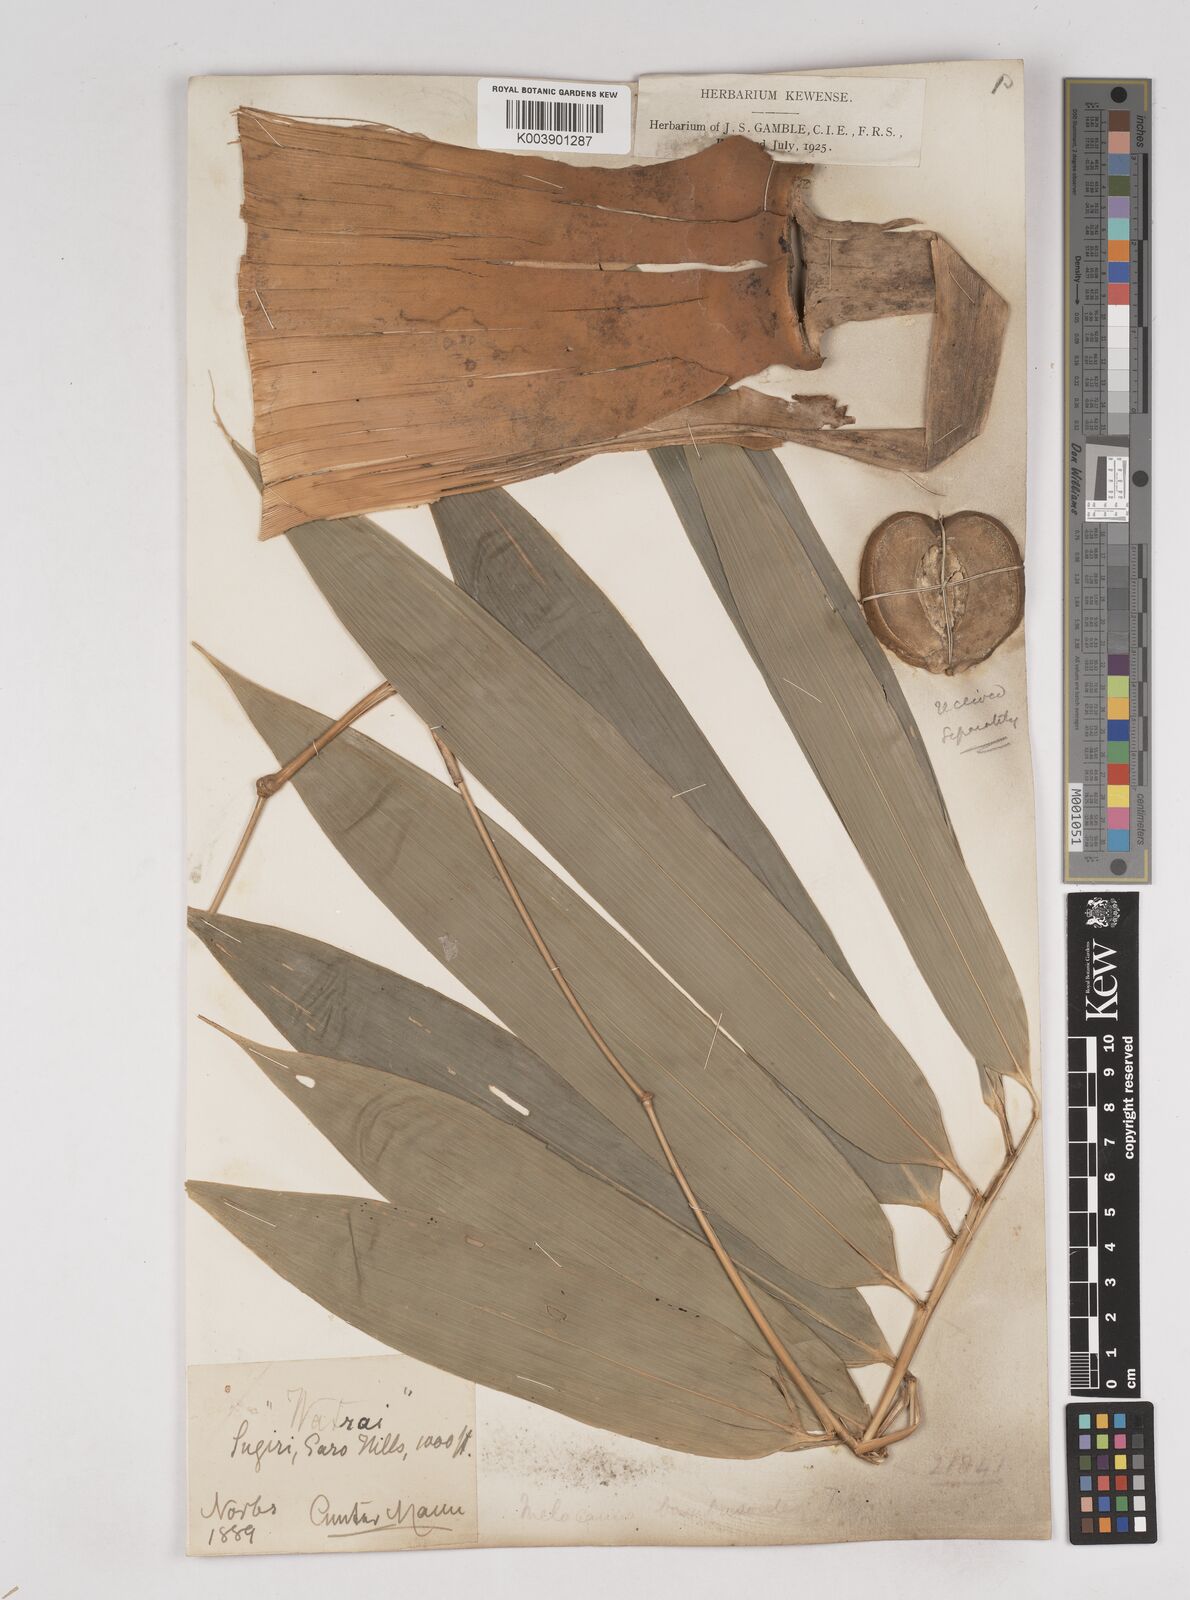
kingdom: Plantae
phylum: Tracheophyta
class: Liliopsida
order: Poales
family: Poaceae
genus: Melocanna
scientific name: Melocanna baccifera
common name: Berry bamboo
